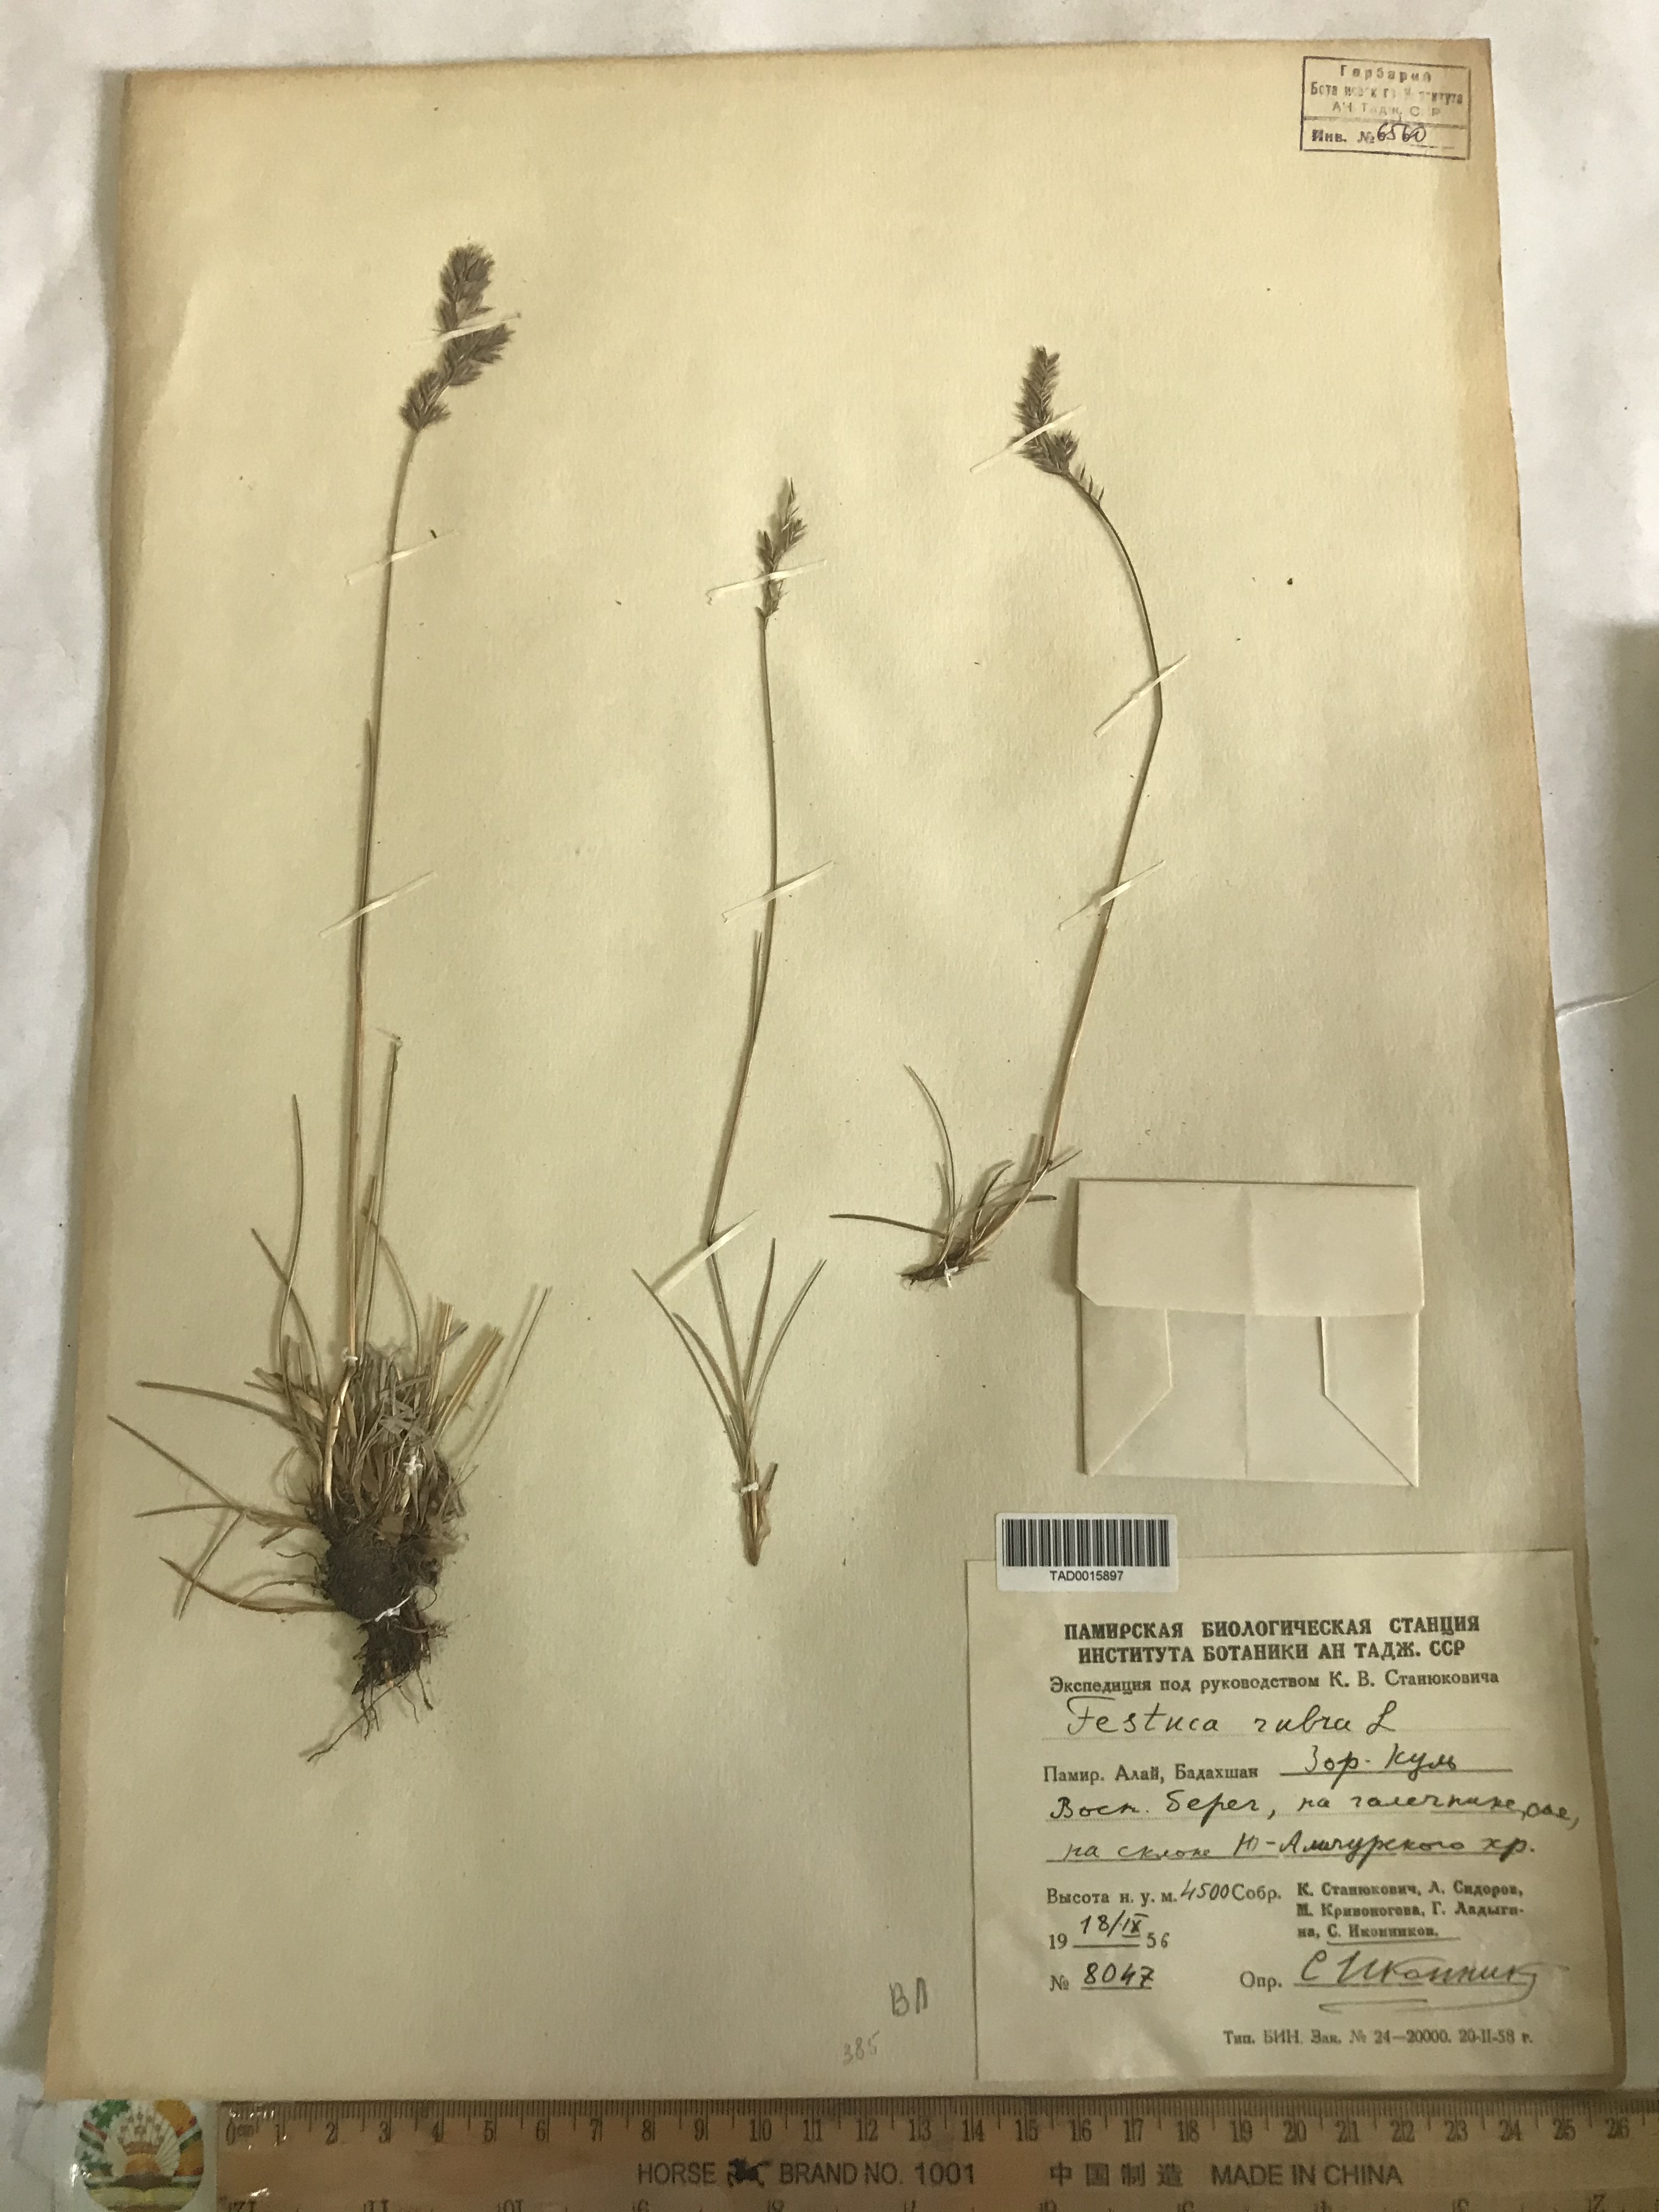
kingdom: Plantae
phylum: Tracheophyta
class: Liliopsida
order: Poales
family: Poaceae
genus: Festuca
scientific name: Festuca rubra
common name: Red fescue
